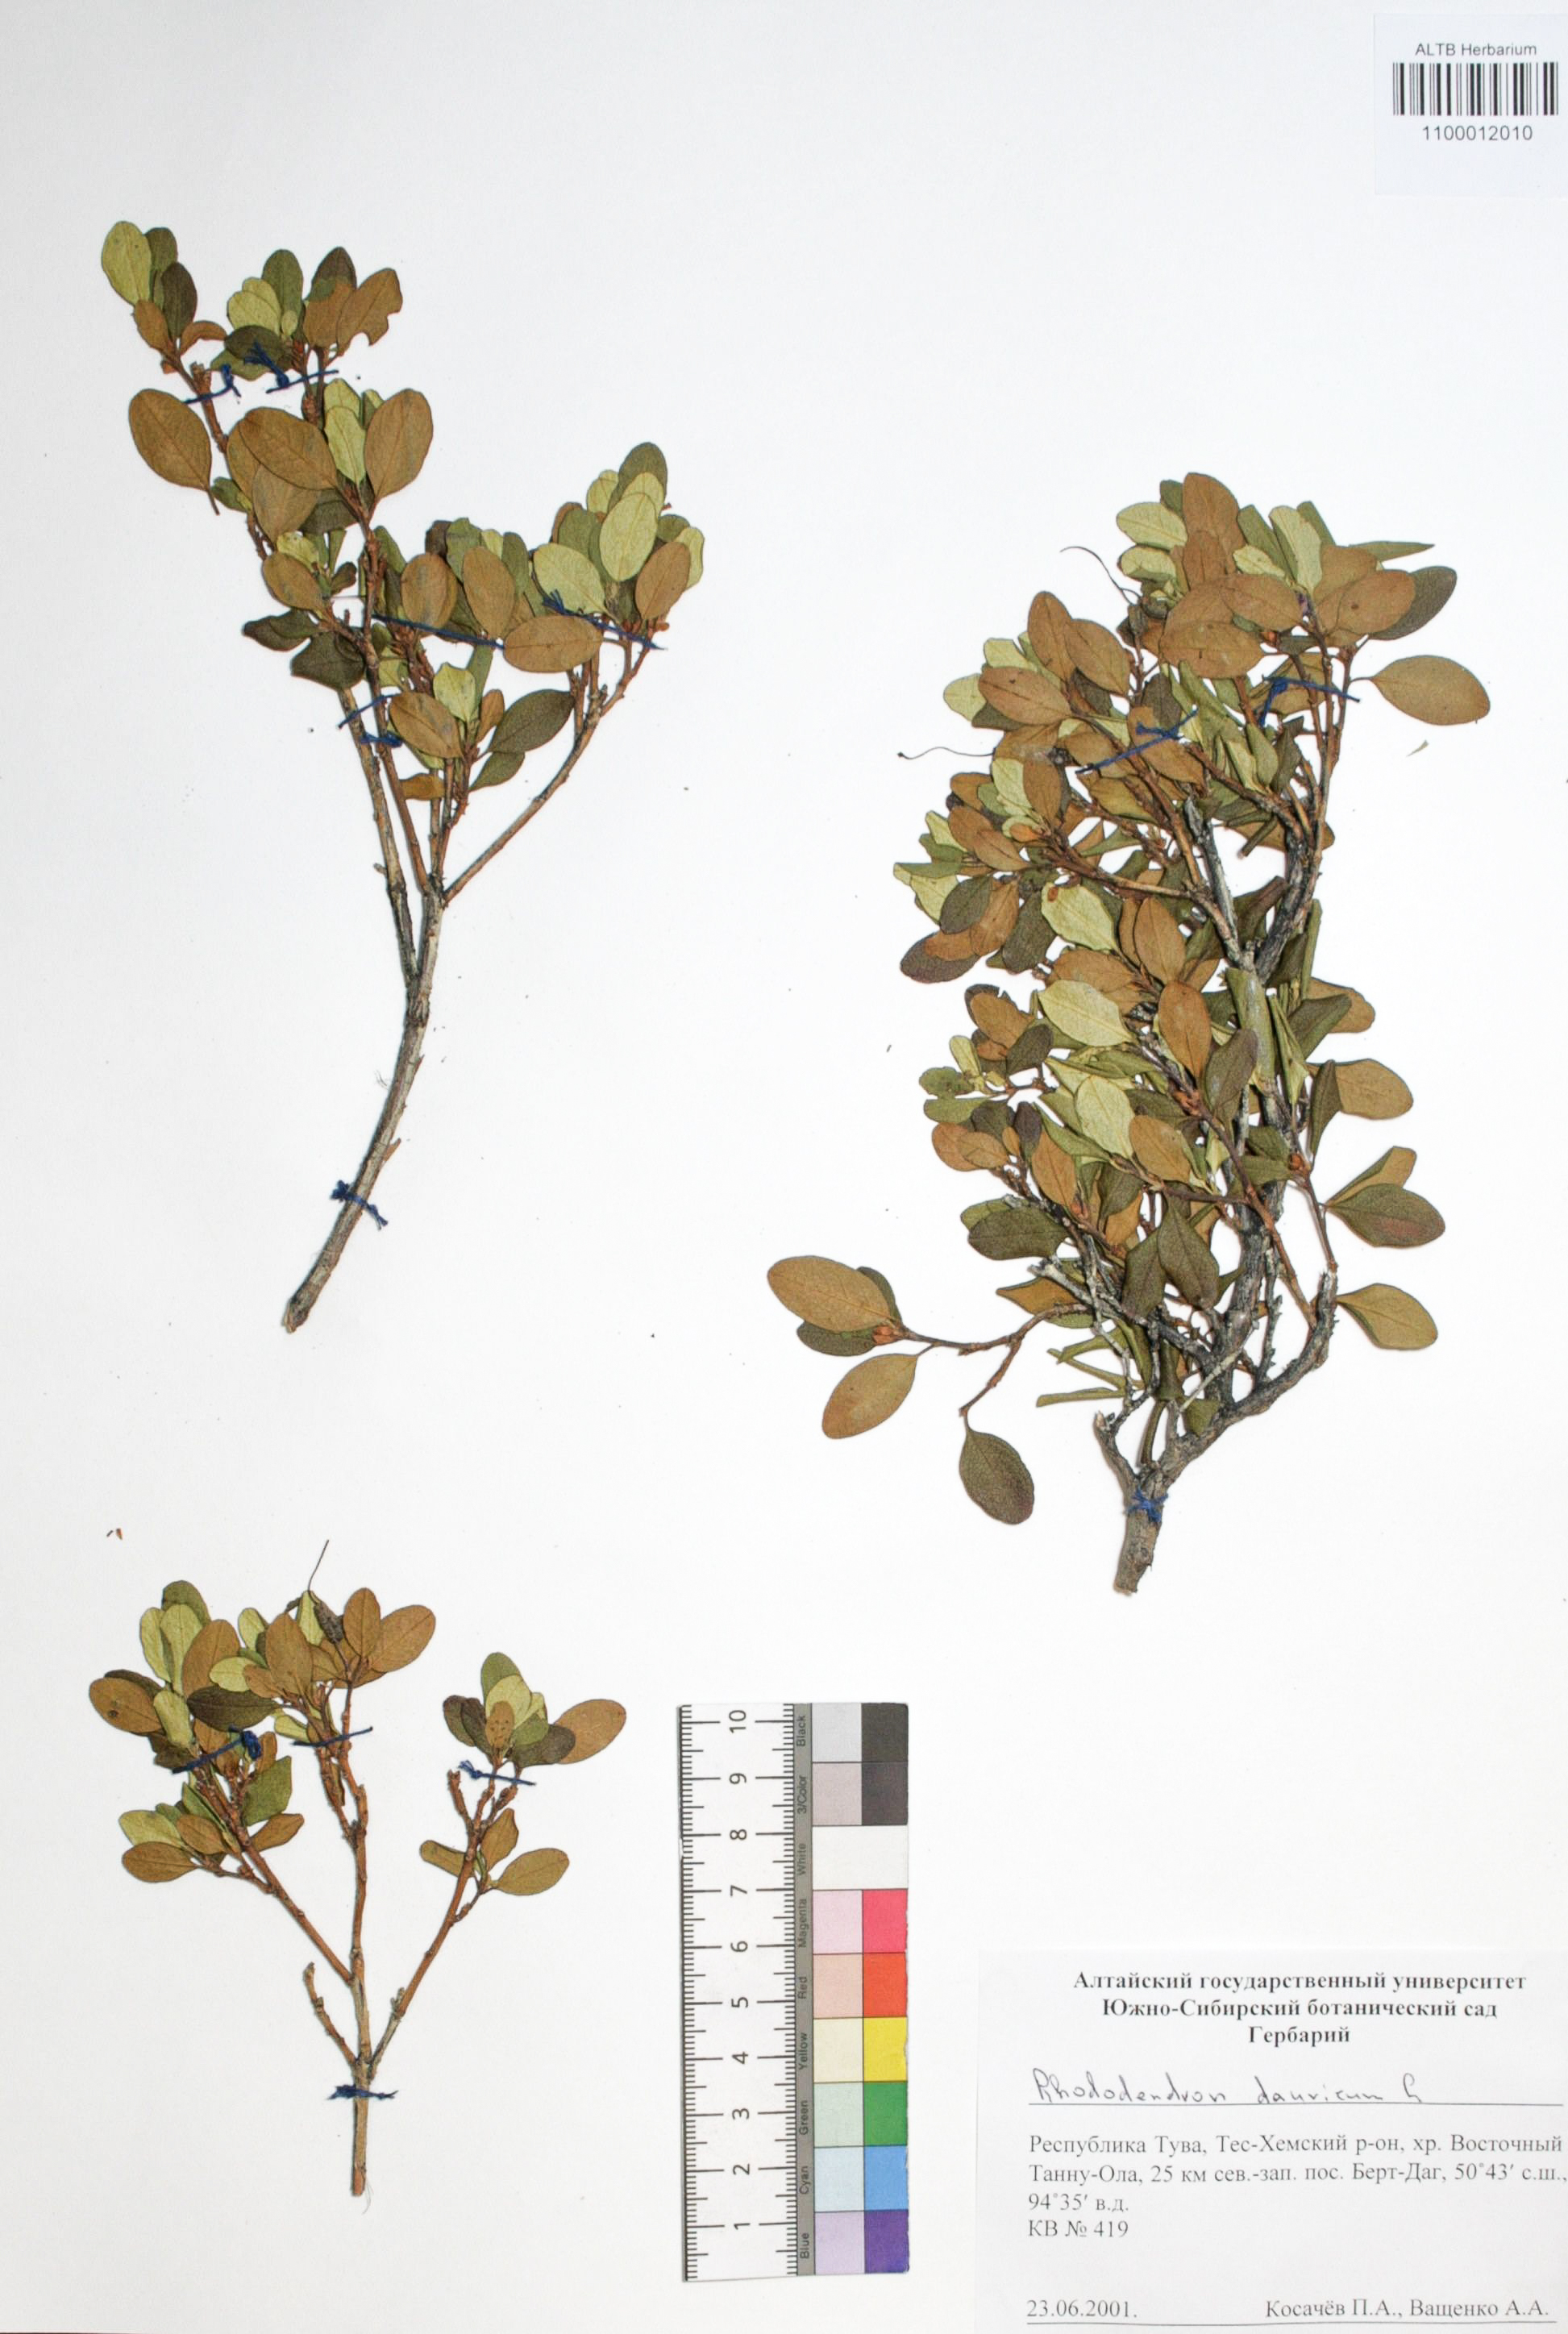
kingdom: Plantae
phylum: Tracheophyta
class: Magnoliopsida
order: Ericales
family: Ericaceae
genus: Rhododendron
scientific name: Rhododendron dahuricum
